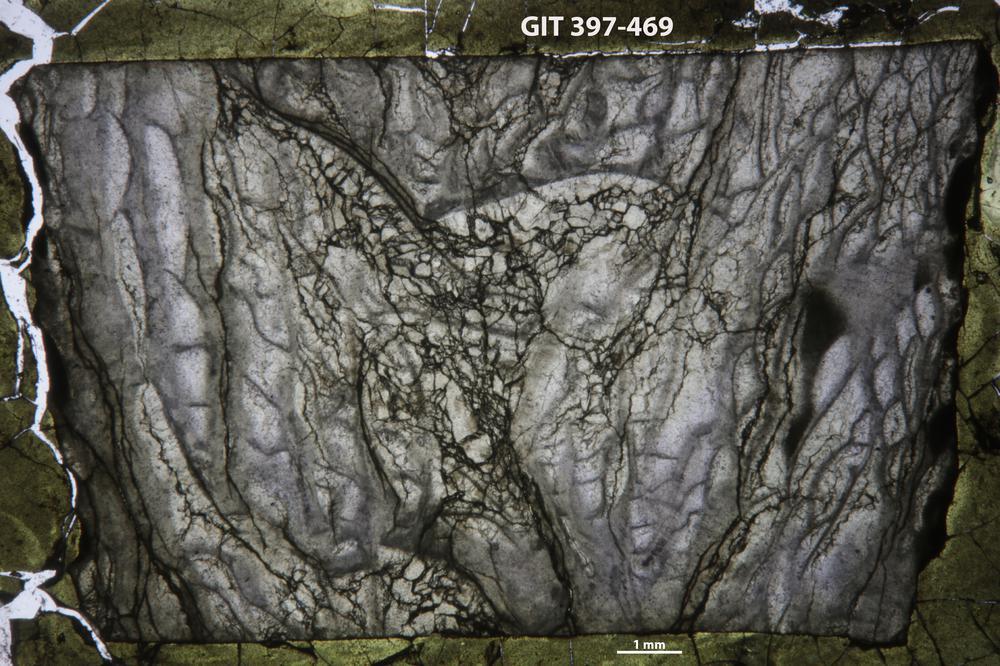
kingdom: Animalia
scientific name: Animalia
